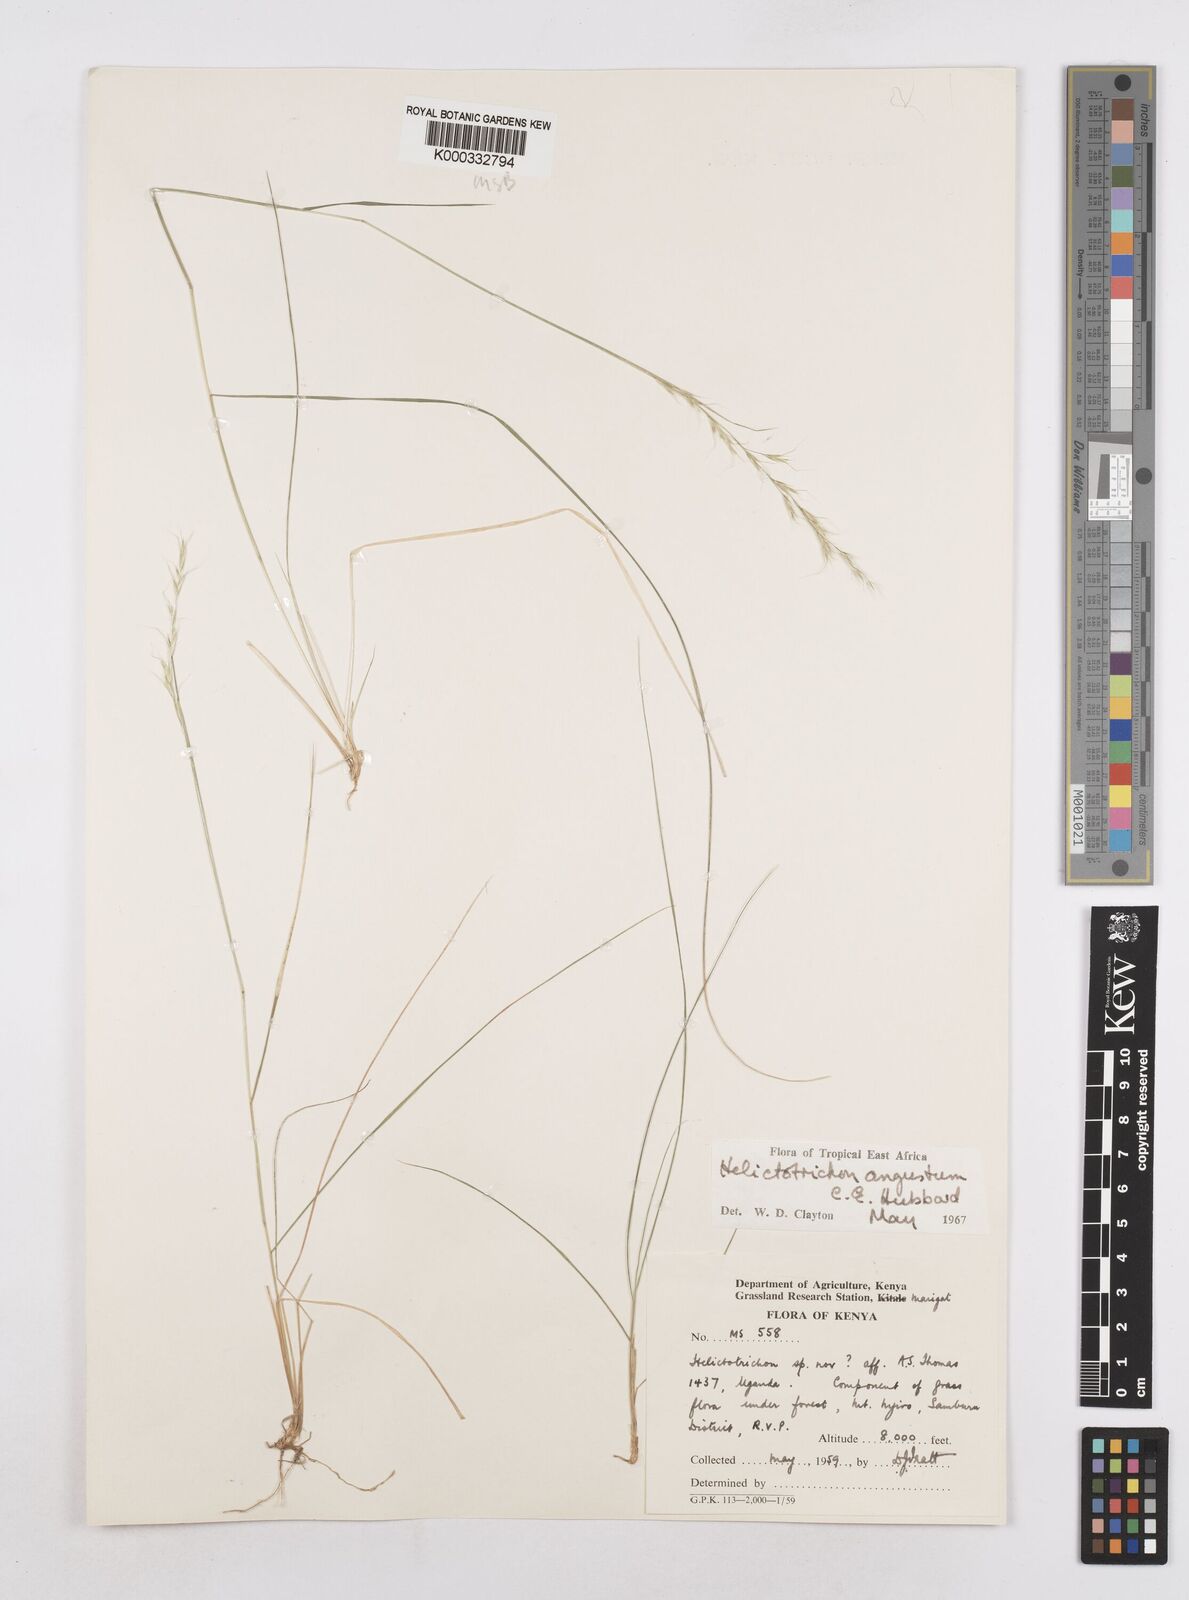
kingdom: Plantae
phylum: Tracheophyta
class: Liliopsida
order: Poales
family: Poaceae
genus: Trisetopsis
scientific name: Trisetopsis angusta
